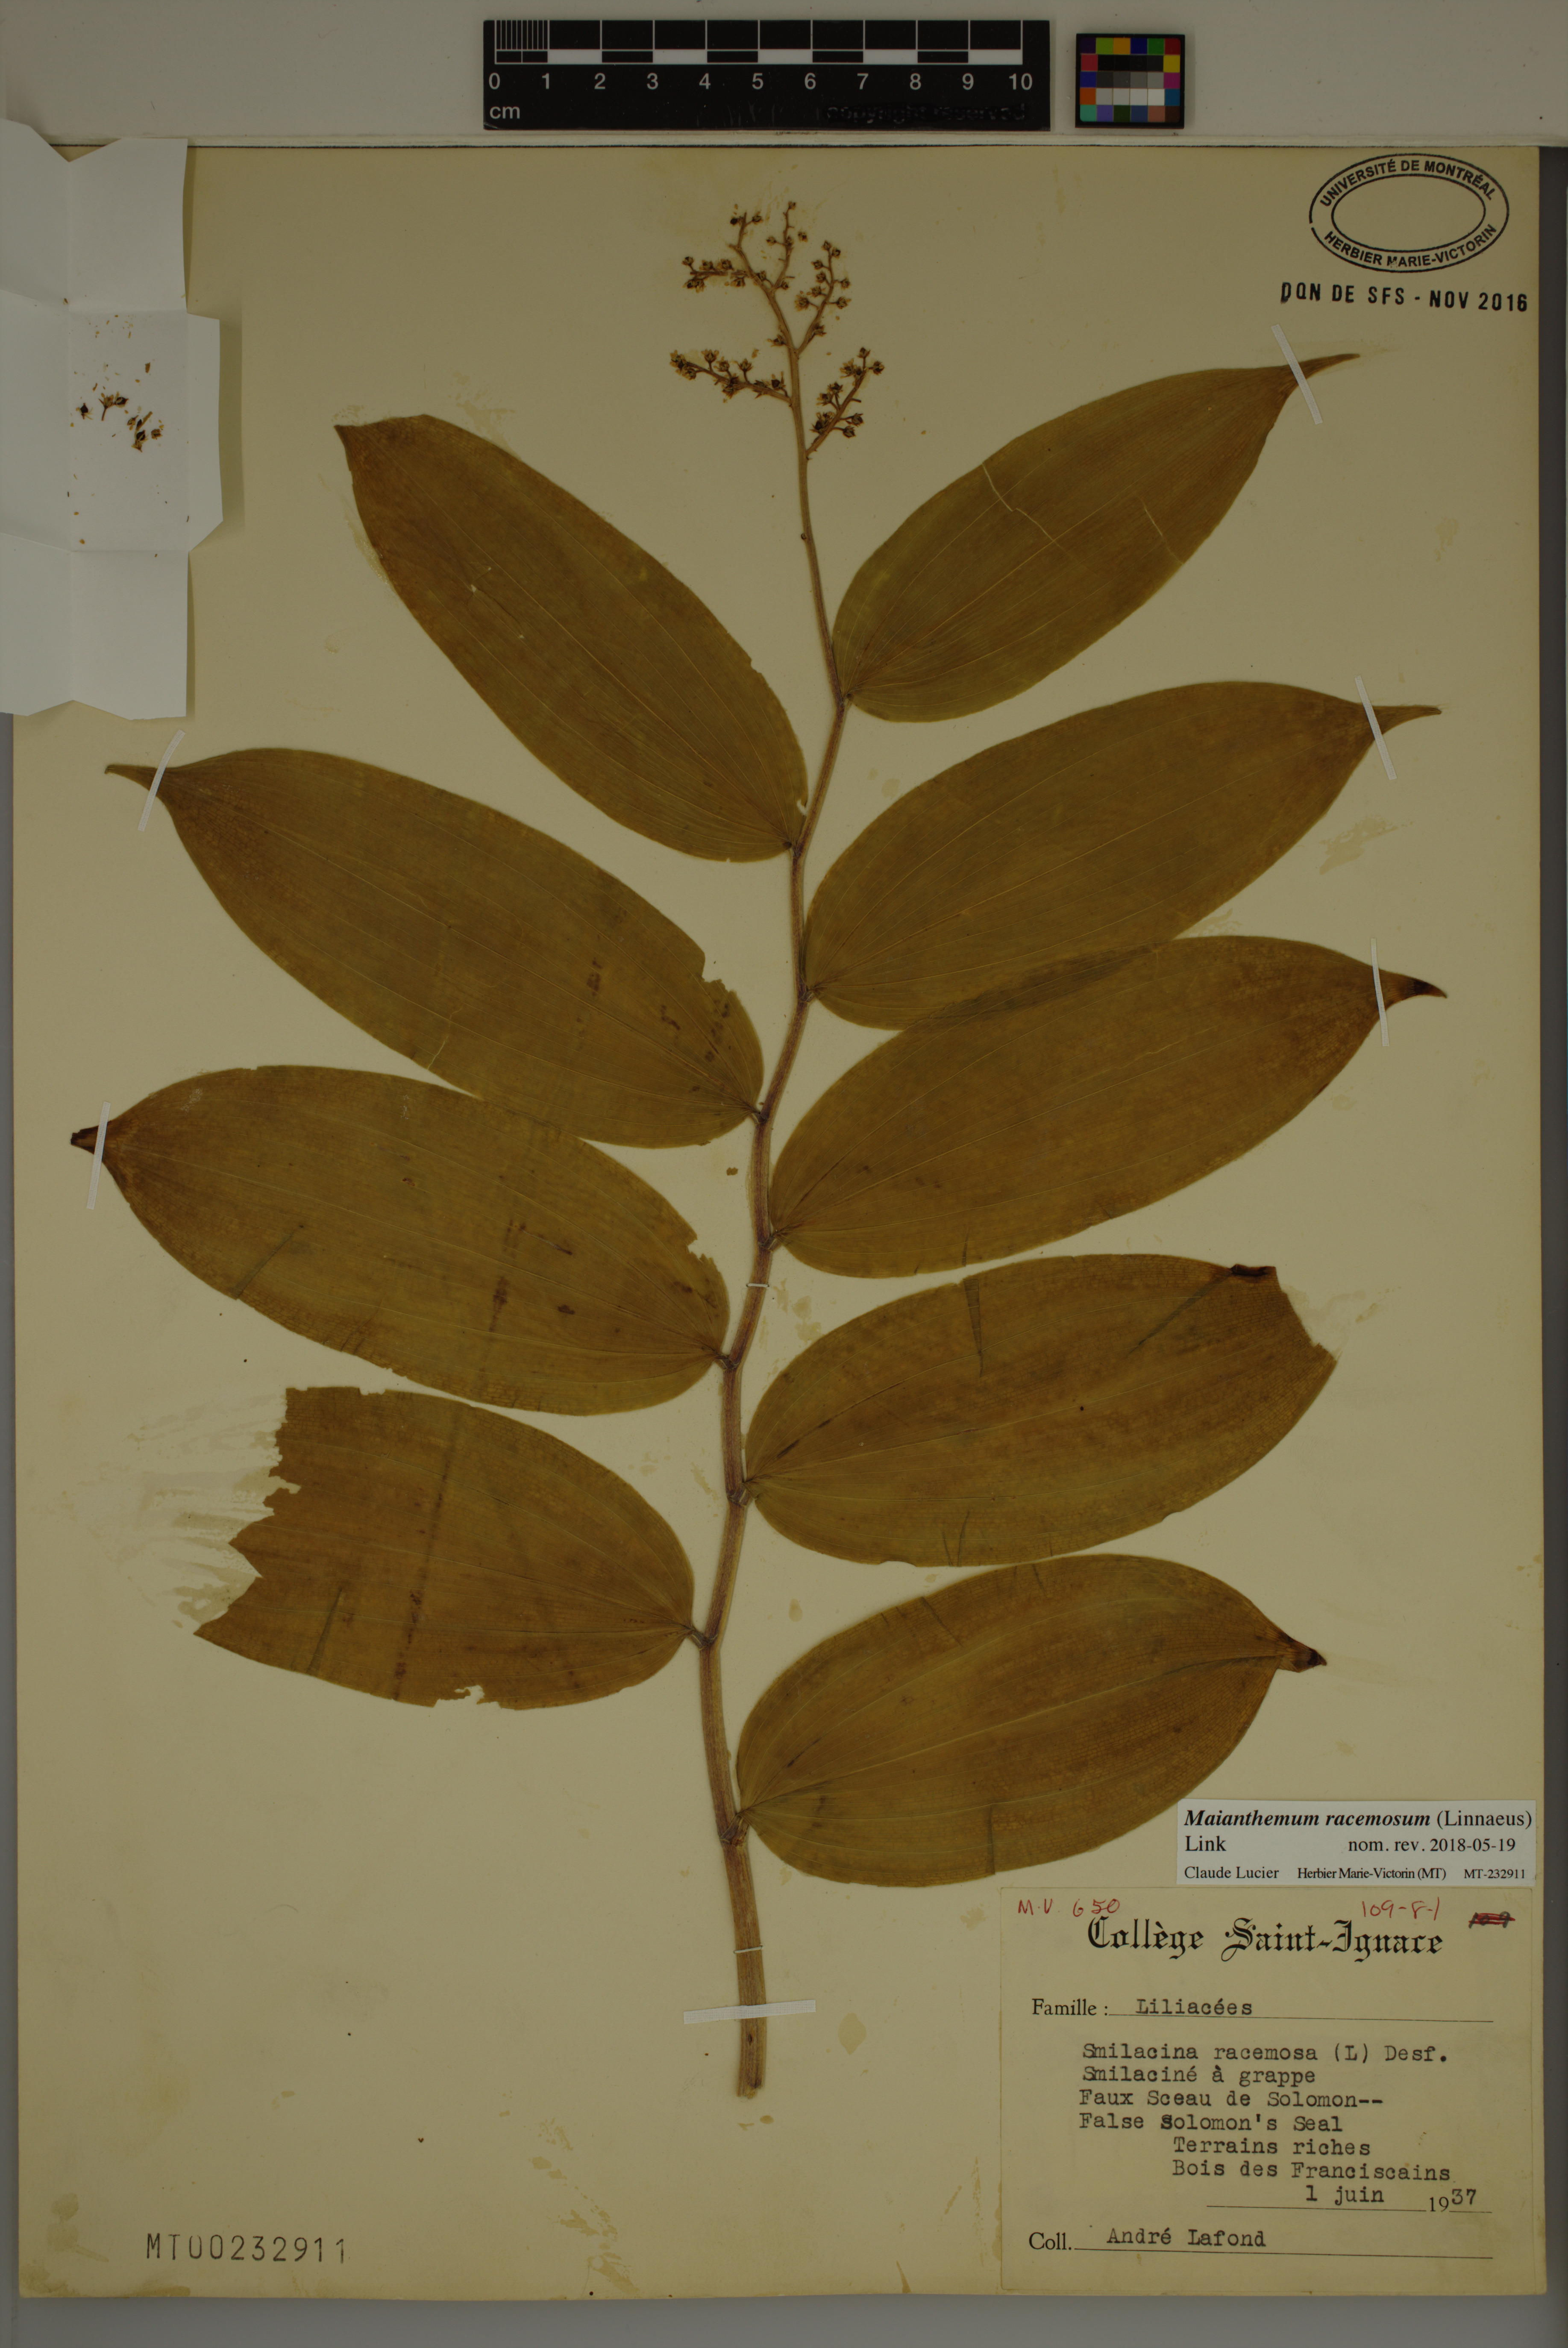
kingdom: Plantae
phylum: Tracheophyta
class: Liliopsida
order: Asparagales
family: Asparagaceae
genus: Maianthemum
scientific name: Maianthemum racemosum
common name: False spikenard
